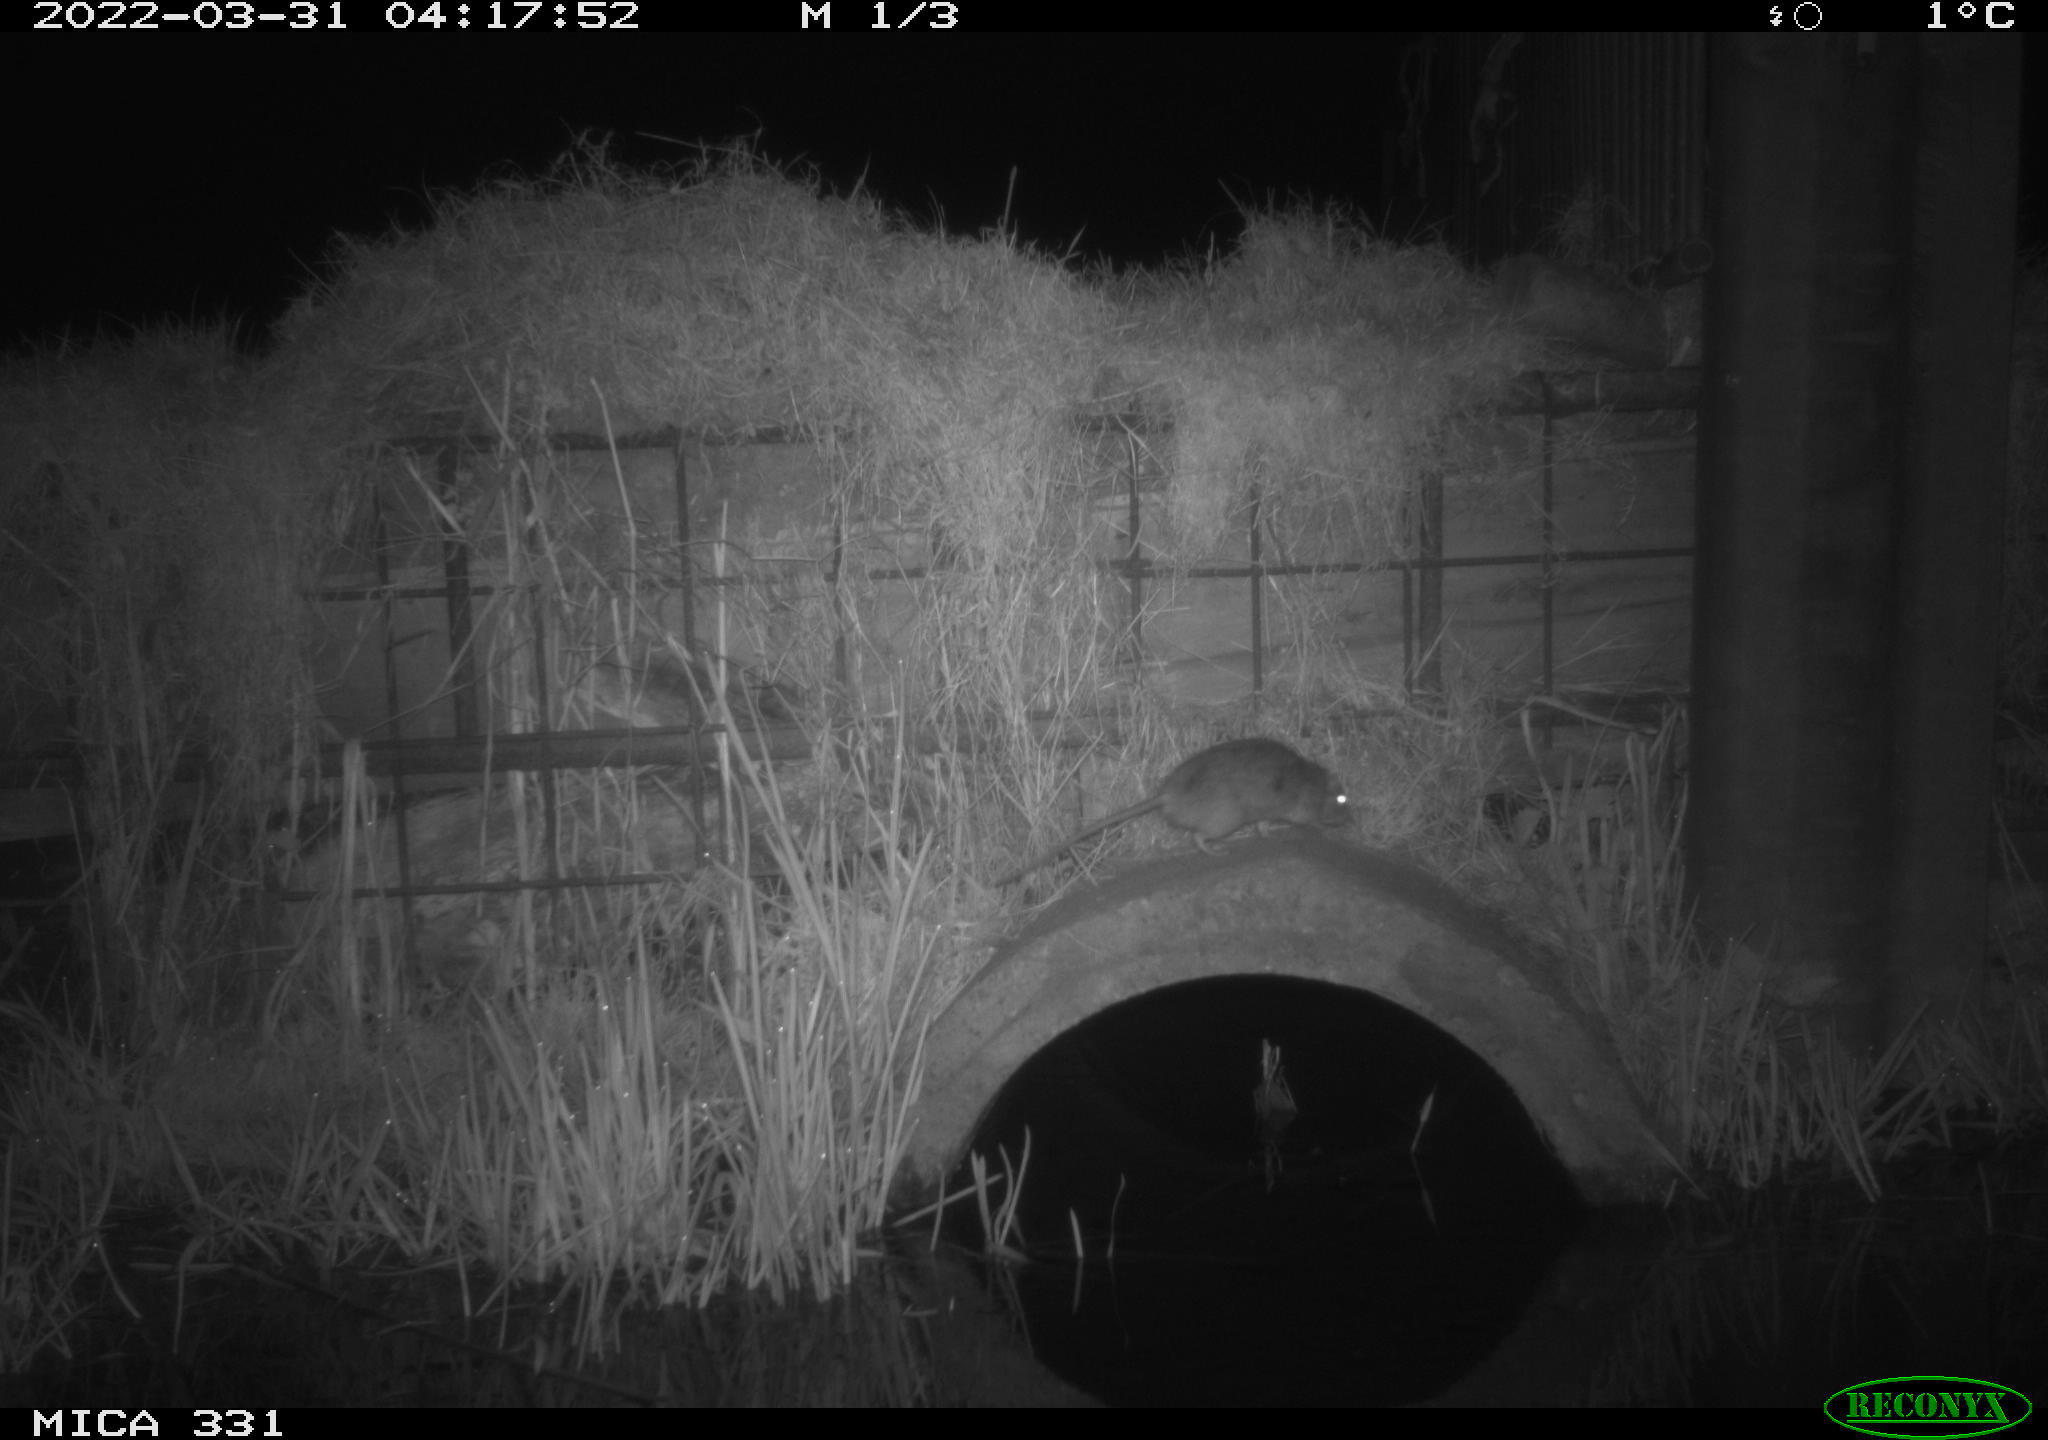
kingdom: Animalia
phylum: Chordata
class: Mammalia
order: Rodentia
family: Muridae
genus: Rattus
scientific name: Rattus norvegicus
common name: Brown rat
